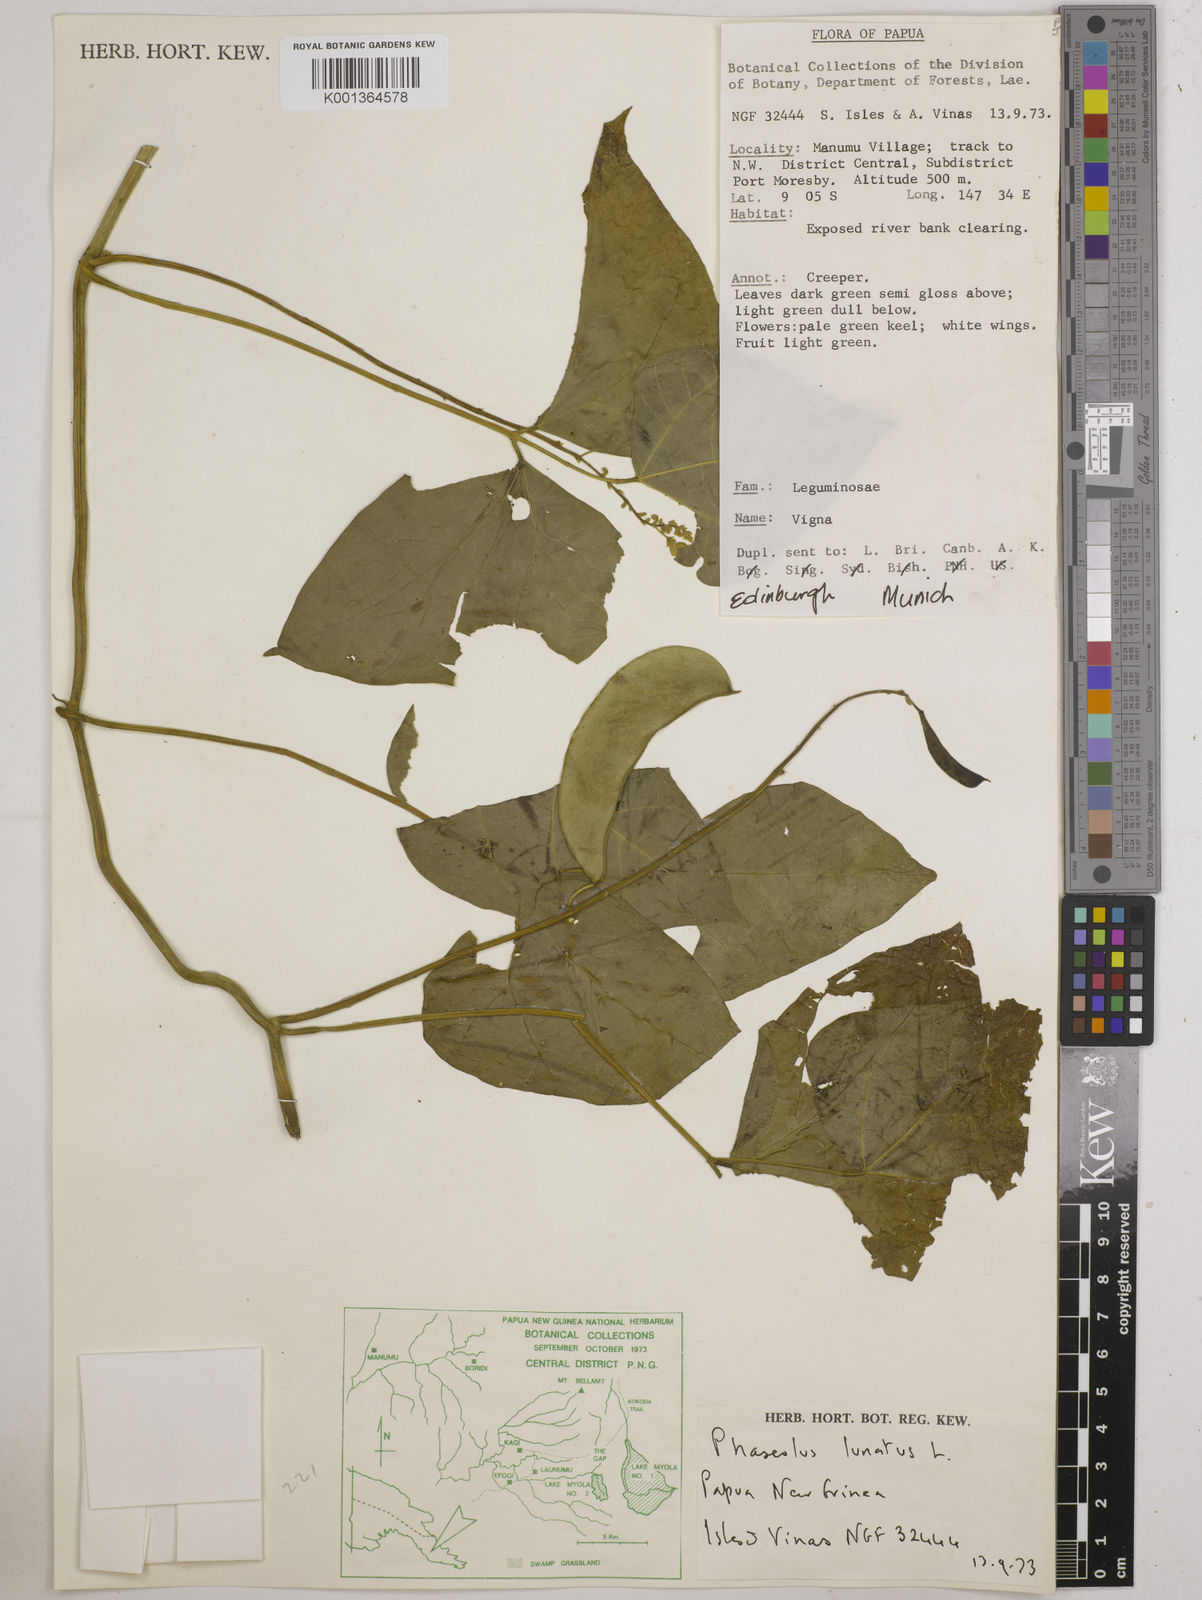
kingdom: Plantae
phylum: Tracheophyta
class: Magnoliopsida
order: Fabales
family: Fabaceae
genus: Phaseolus
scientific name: Phaseolus lunatus
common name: Sieva bean
